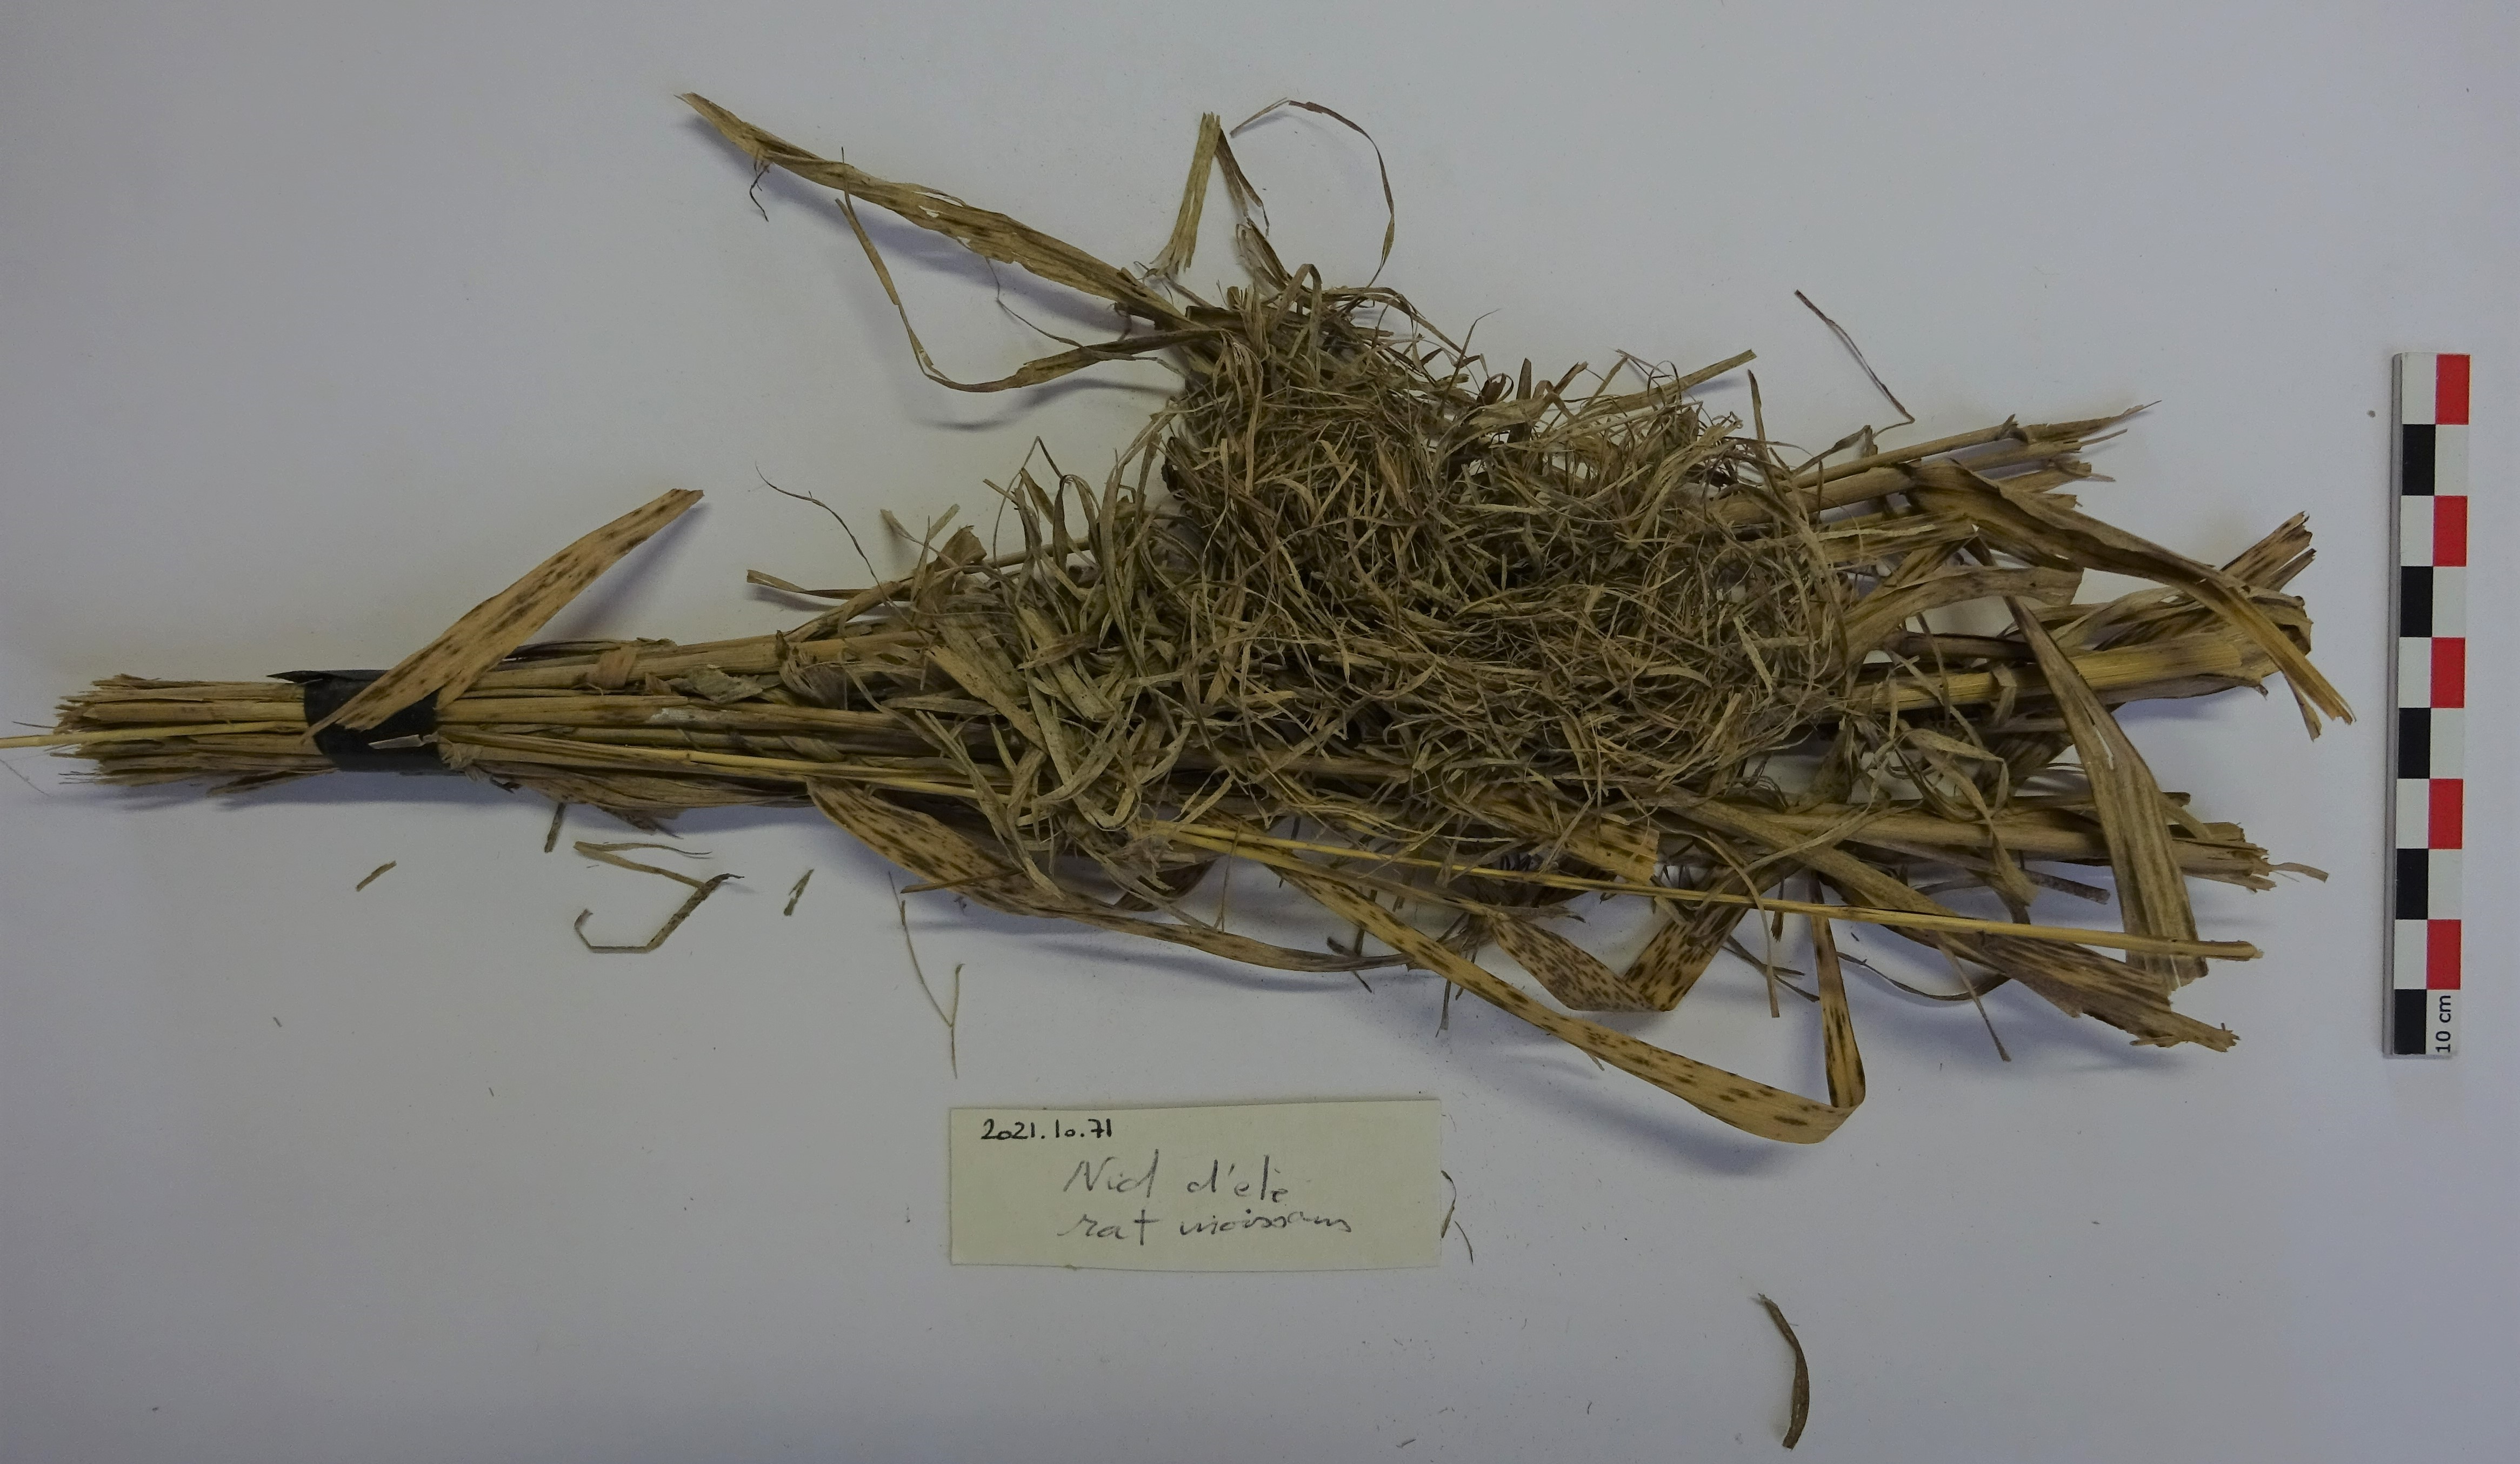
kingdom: Animalia
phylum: Chordata
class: Mammalia
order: Rodentia
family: Muridae
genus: Micromys
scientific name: Micromys minutus
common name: Harvest mouse
